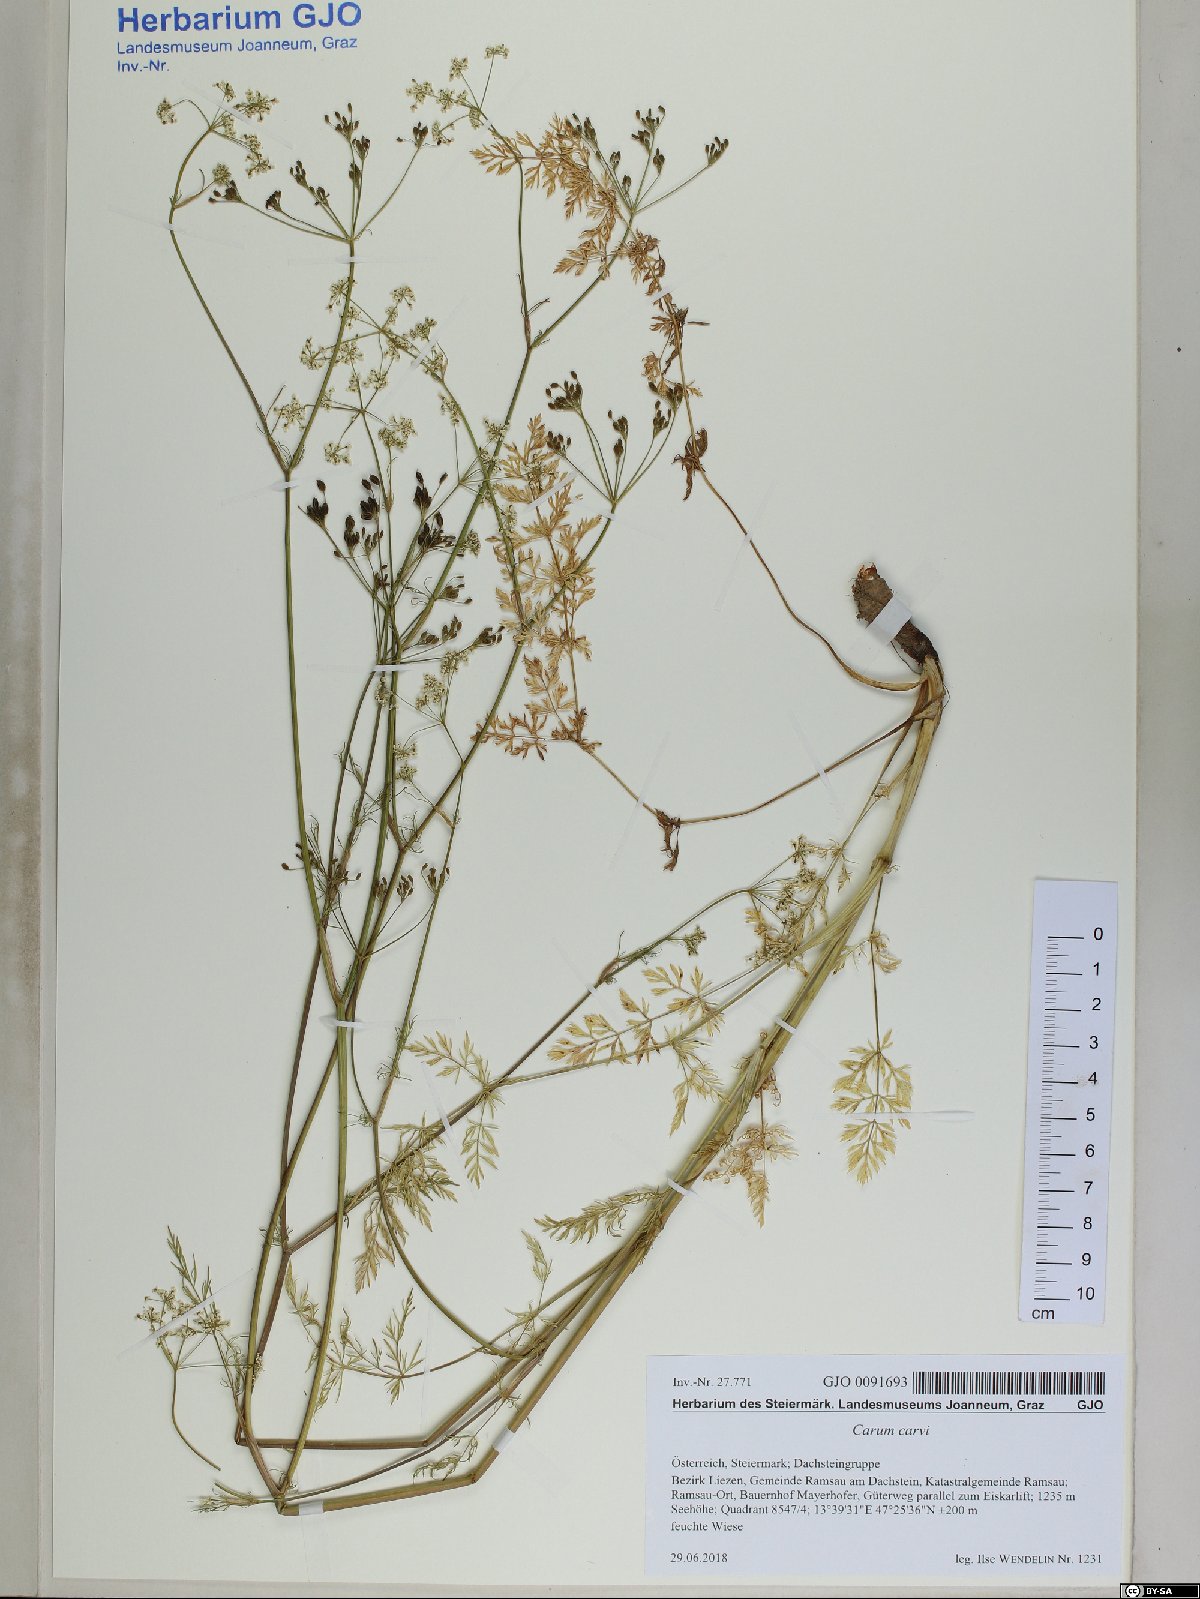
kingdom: Plantae
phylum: Tracheophyta
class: Magnoliopsida
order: Apiales
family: Apiaceae
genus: Carum
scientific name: Carum carvi
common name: Caraway
